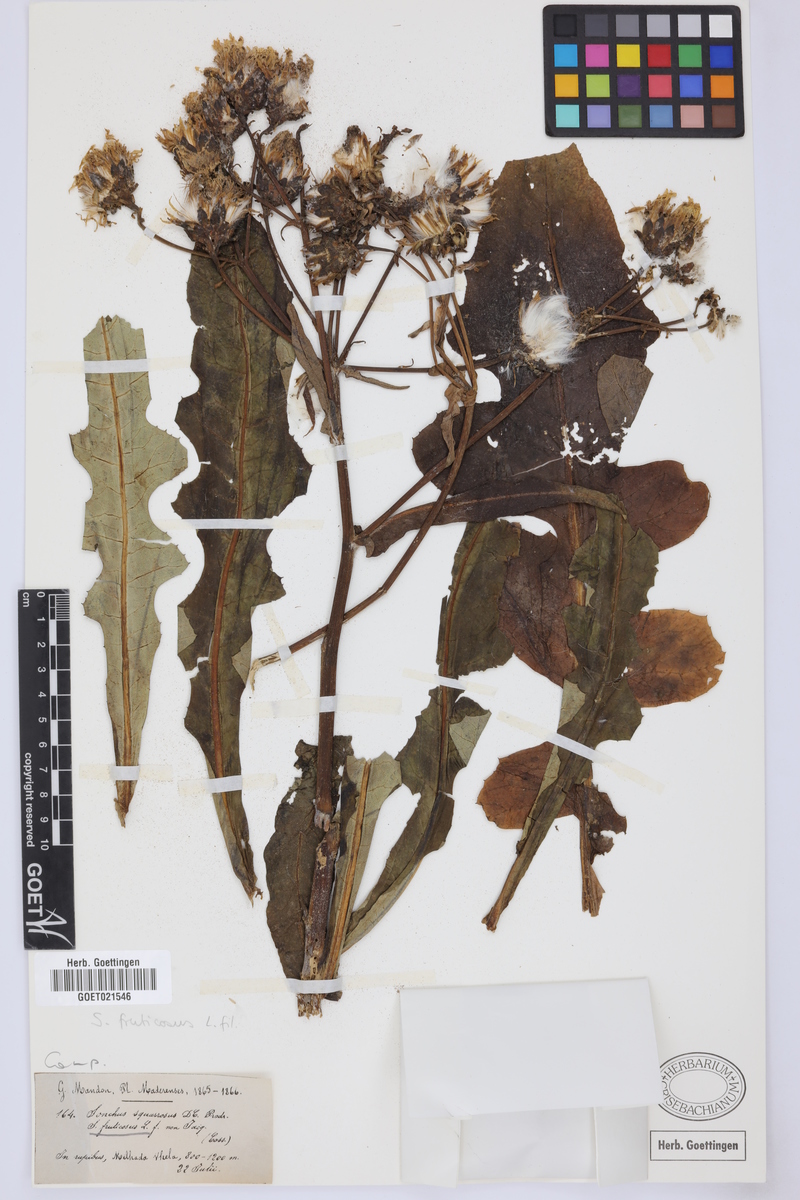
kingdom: Plantae
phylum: Tracheophyta
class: Magnoliopsida
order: Asterales
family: Asteraceae
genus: Sonchus
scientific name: Sonchus fruticosus
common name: Shrubby sow-thistle
